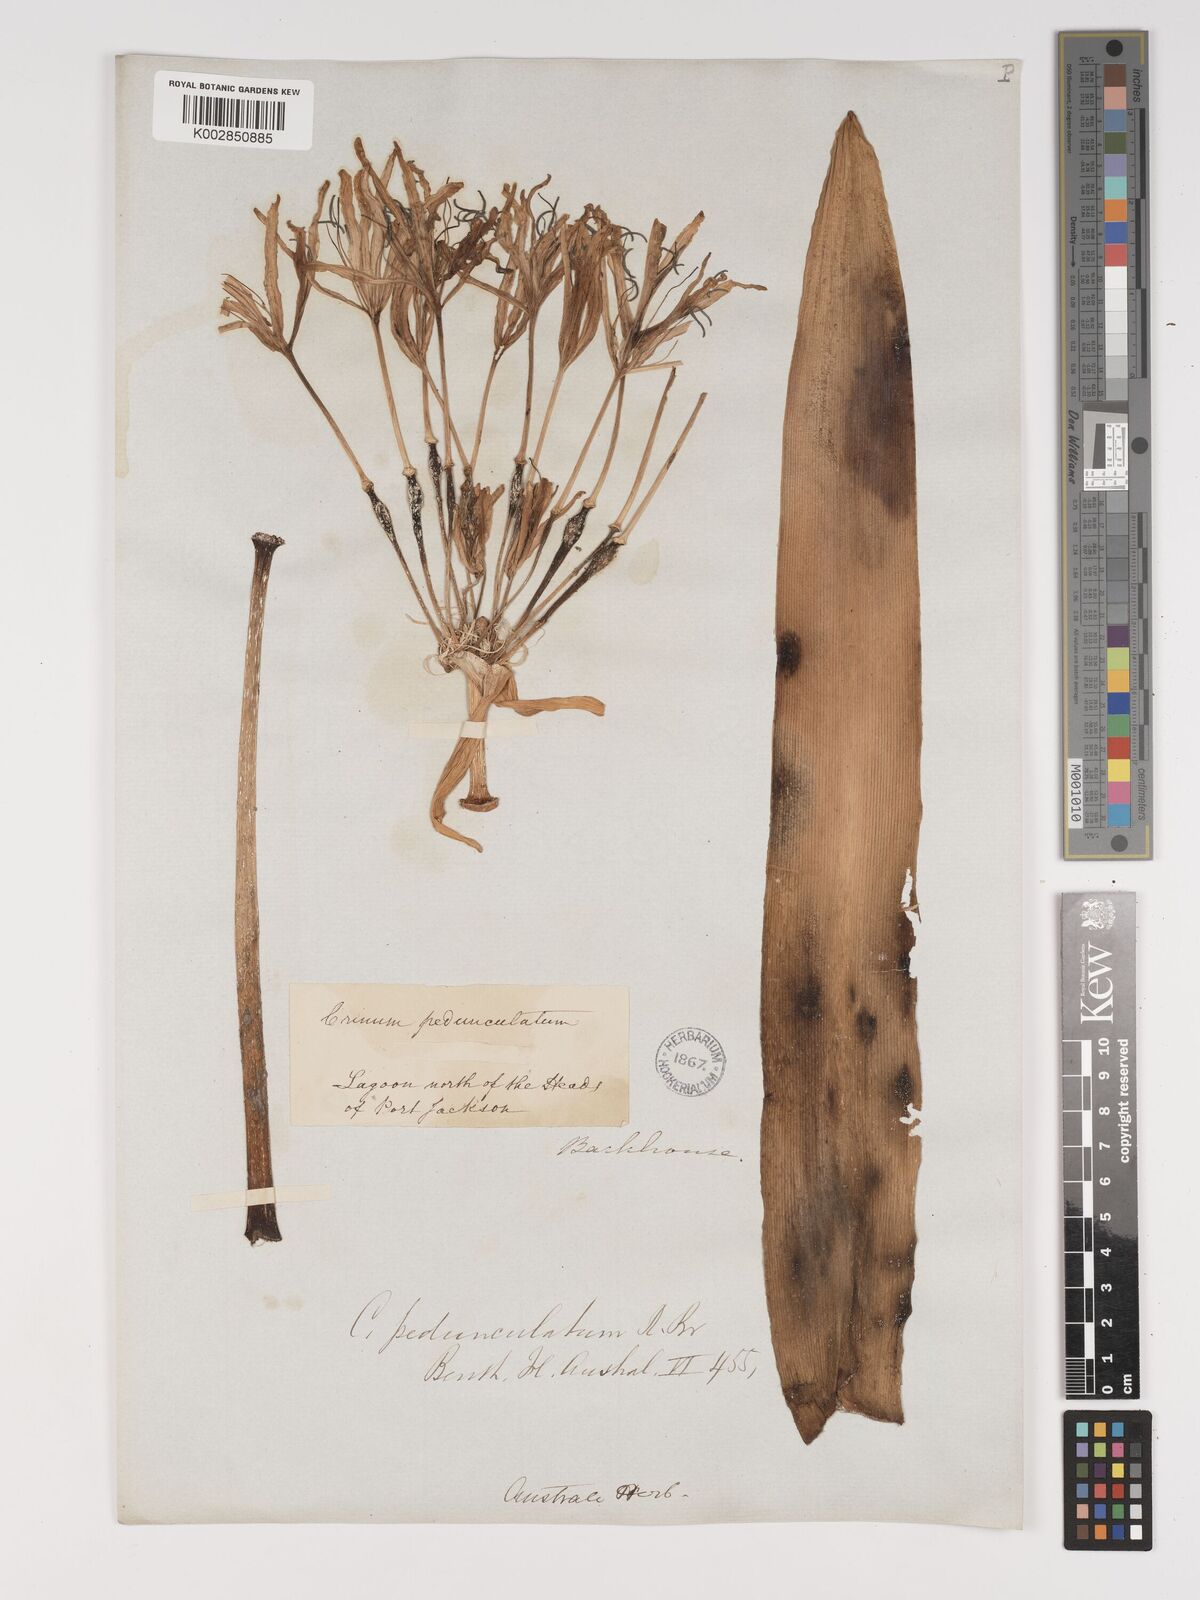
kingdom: Plantae
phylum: Tracheophyta
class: Liliopsida
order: Asparagales
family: Amaryllidaceae
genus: Crinum
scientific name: Crinum asiaticum
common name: Poisonbulb
